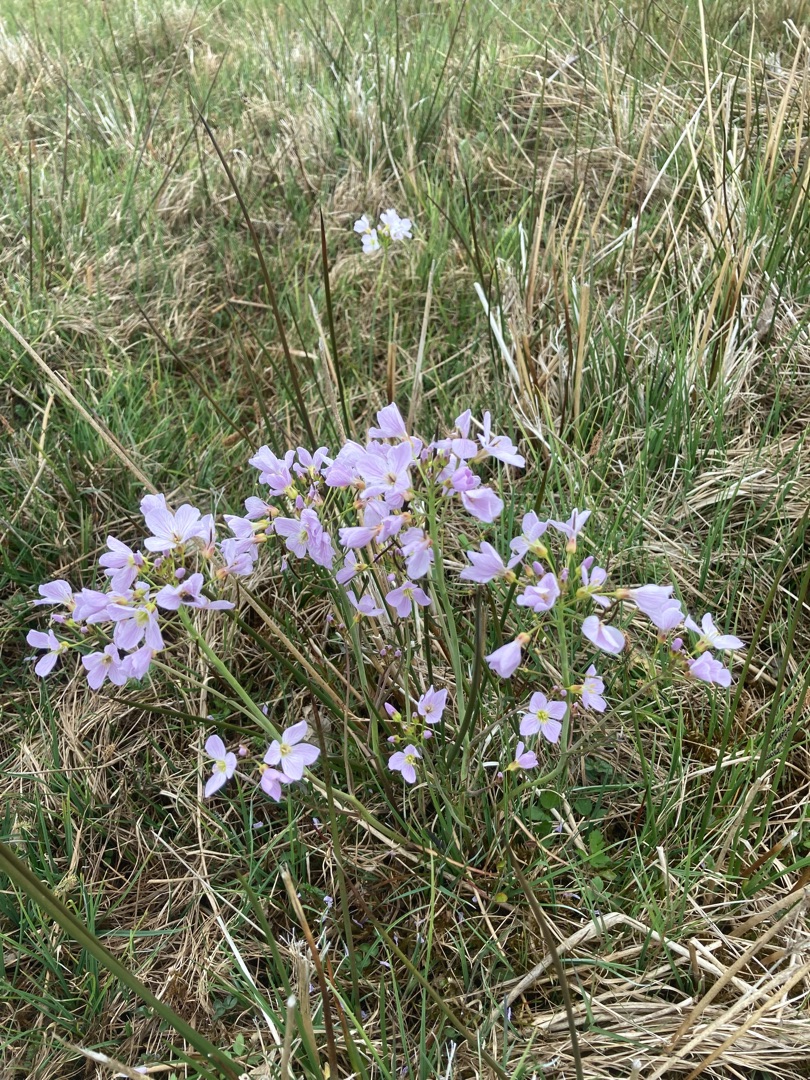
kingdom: Plantae
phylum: Tracheophyta
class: Magnoliopsida
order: Brassicales
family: Brassicaceae
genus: Cardamine
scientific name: Cardamine pratensis
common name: Engkarse
